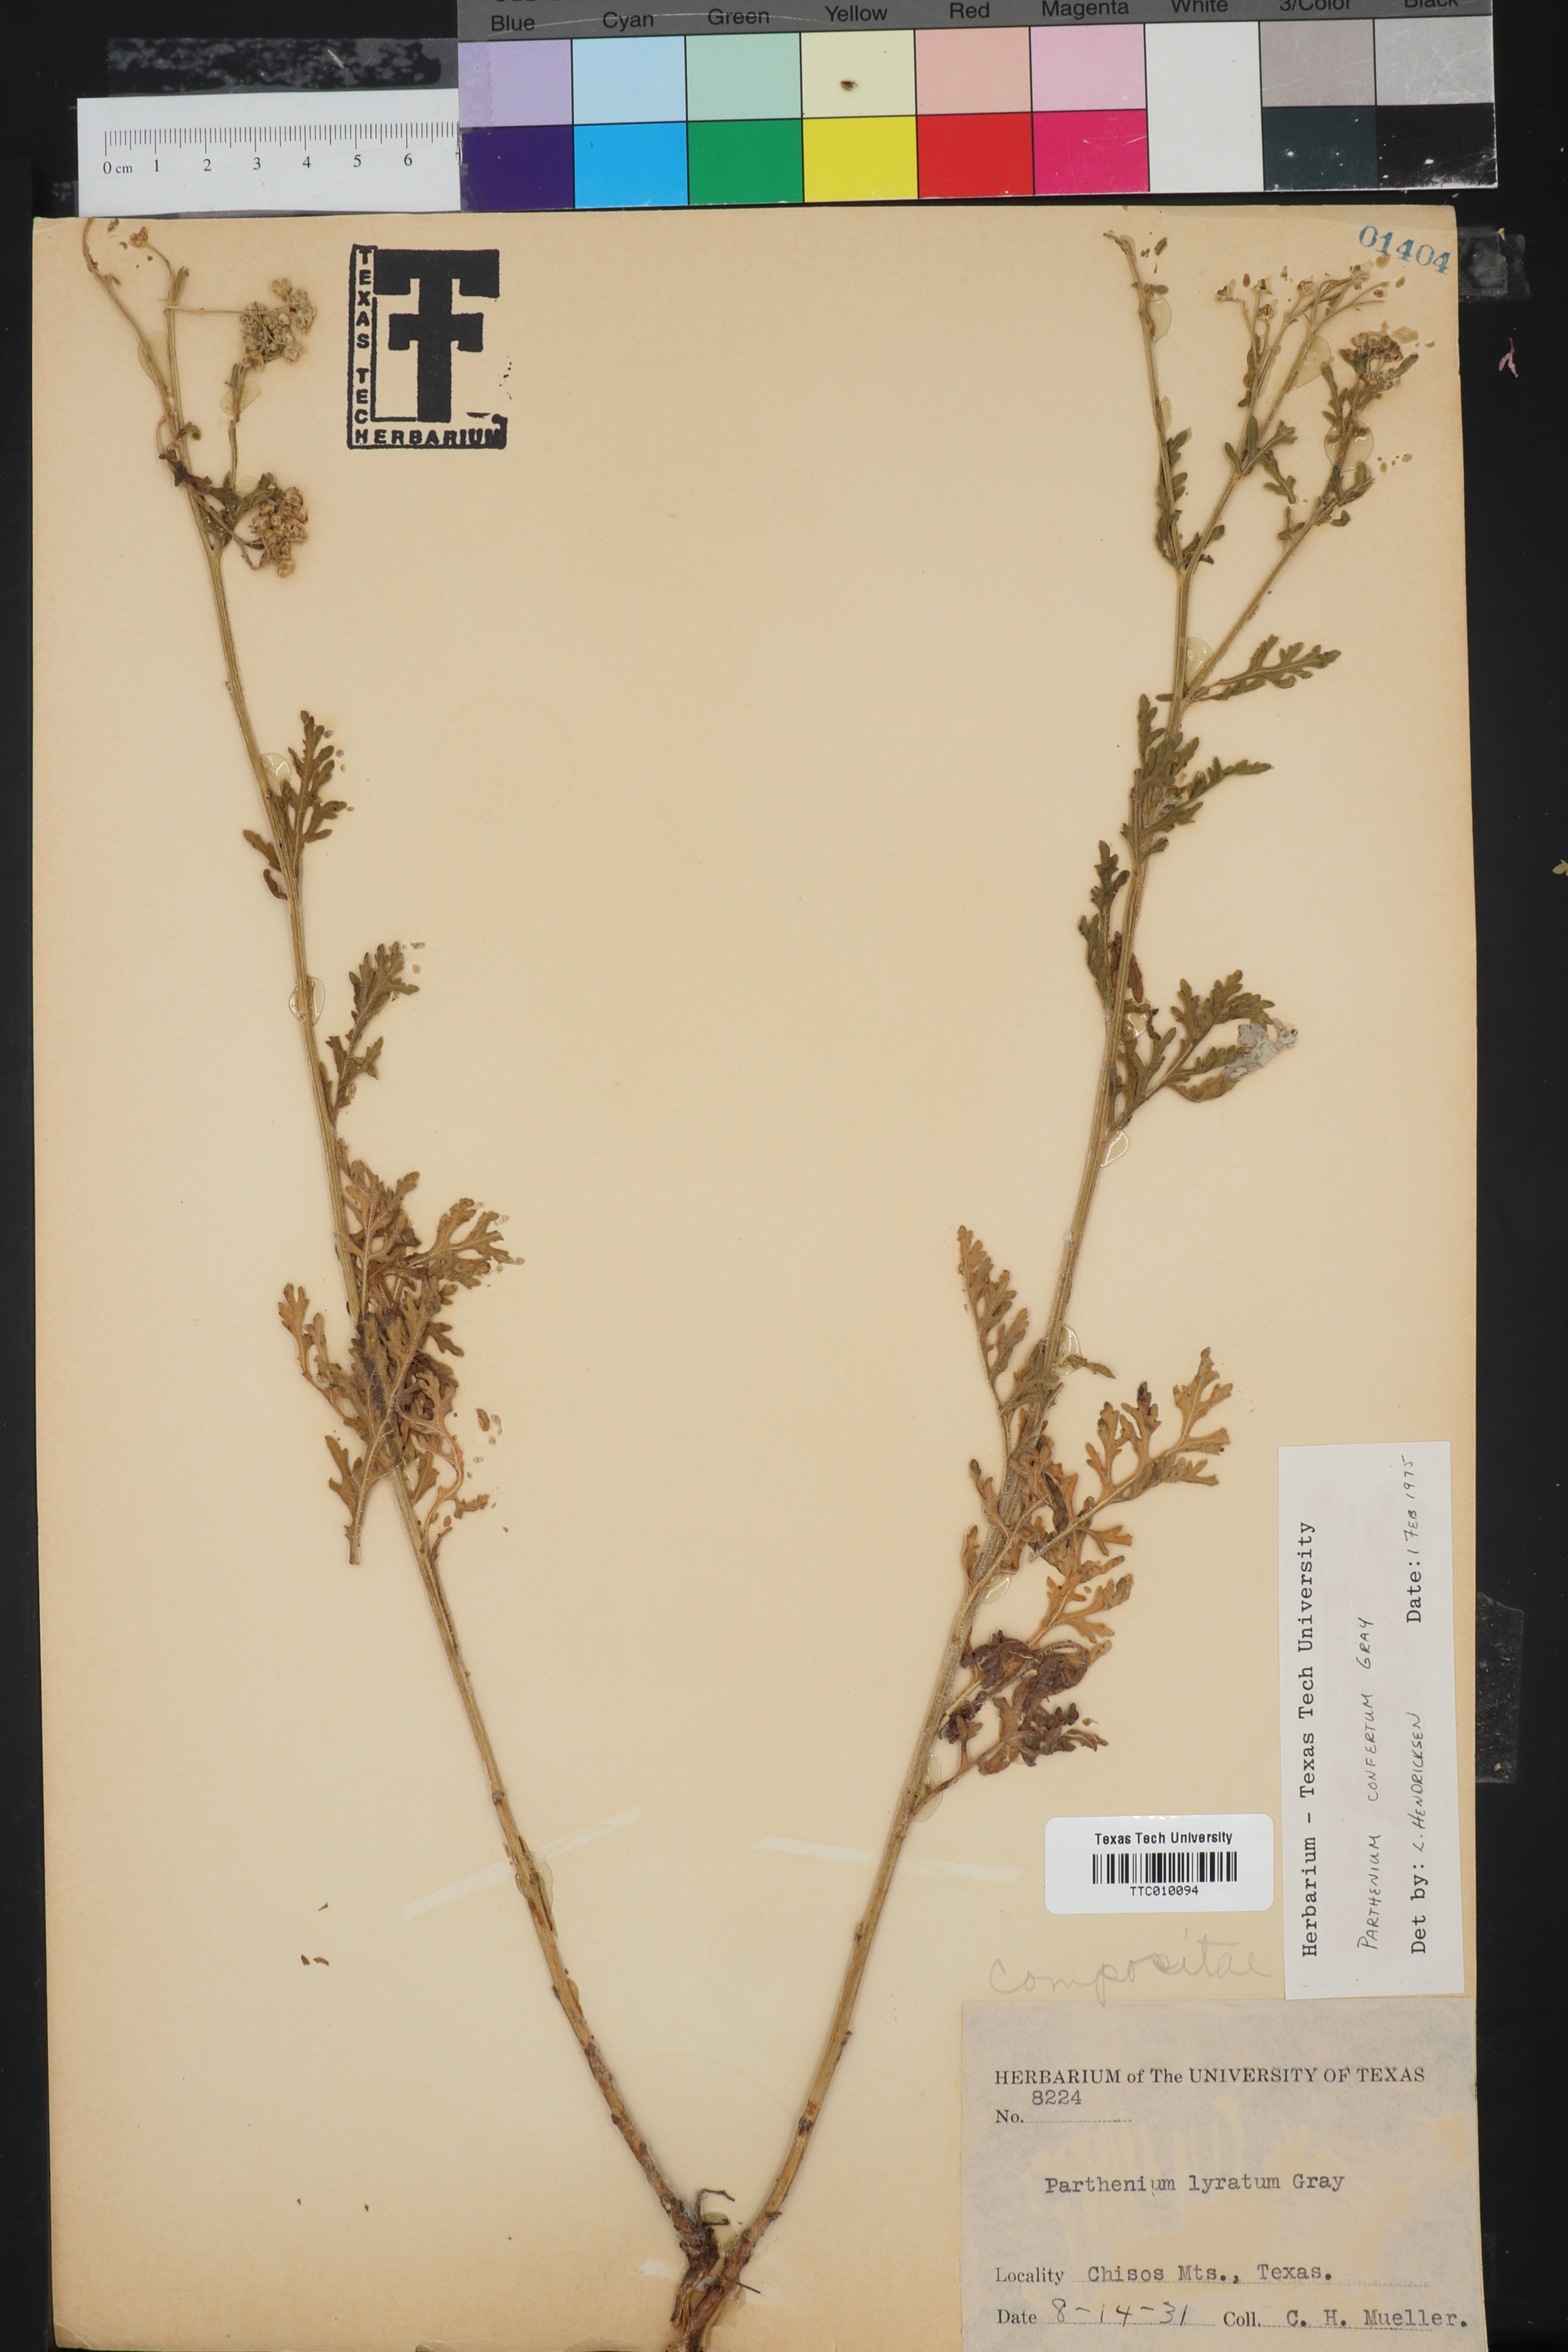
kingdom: Plantae
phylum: Tracheophyta
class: Magnoliopsida
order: Asterales
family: Asteraceae
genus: Parthenium
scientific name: Parthenium confertum
